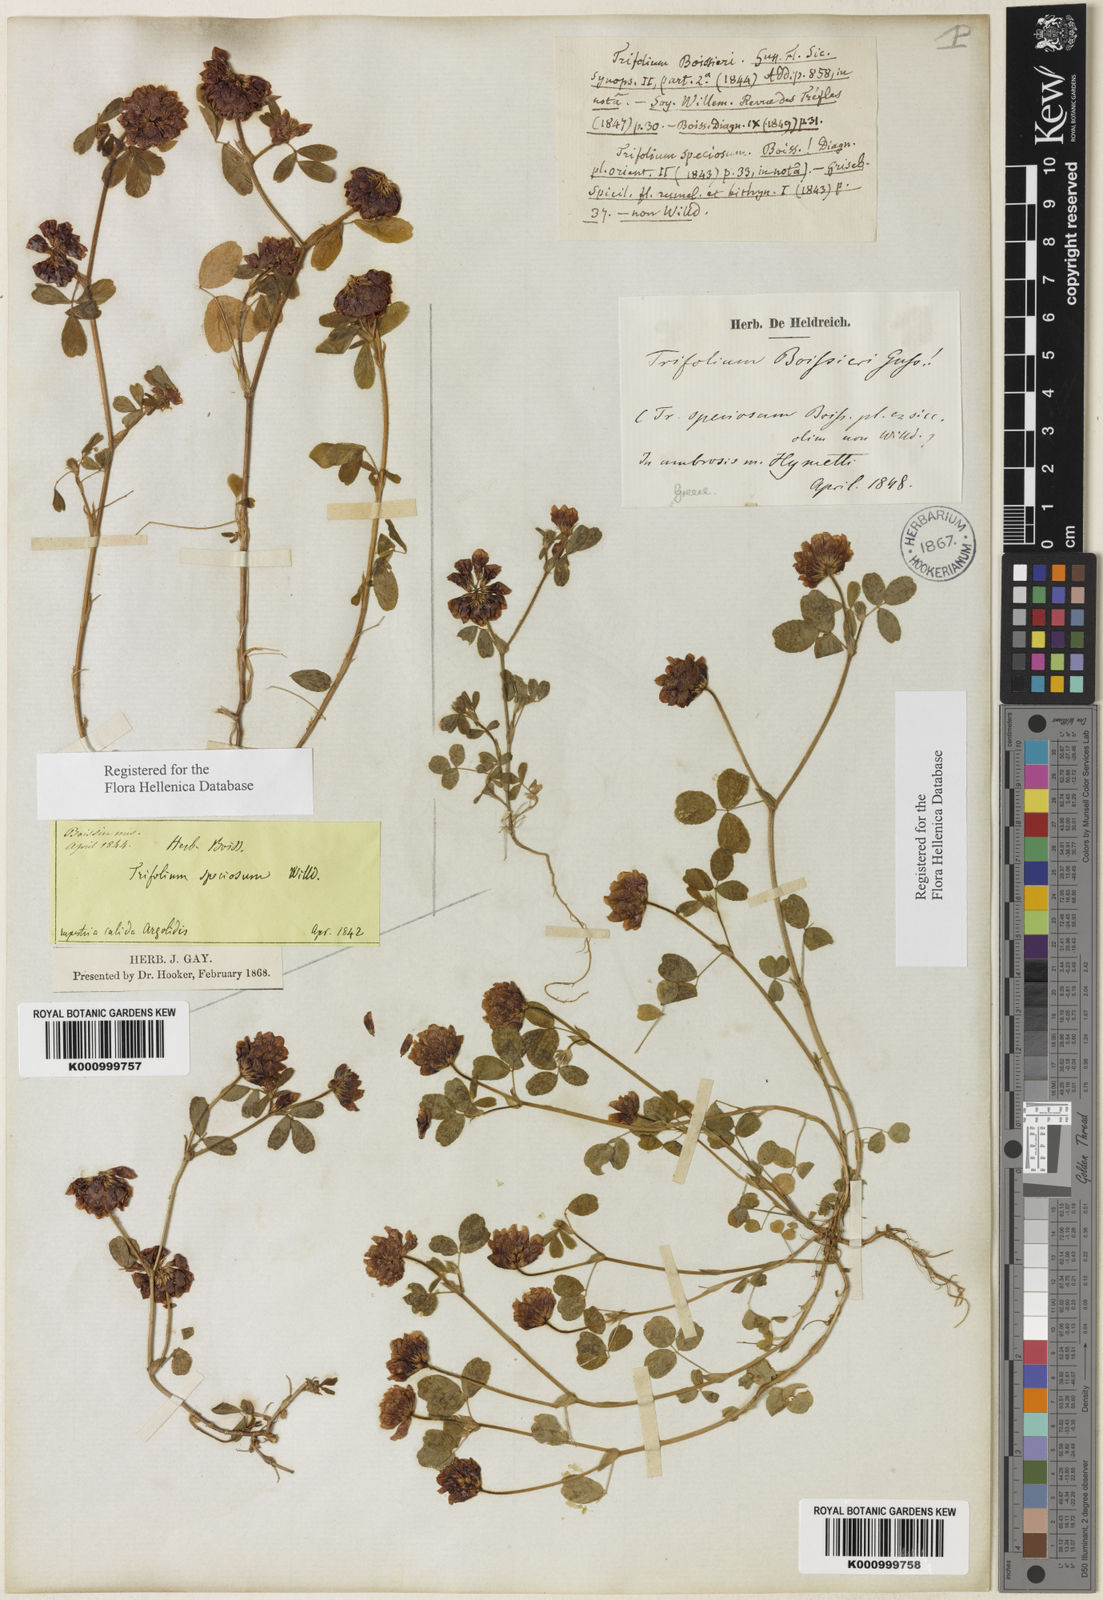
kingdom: Plantae
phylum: Tracheophyta
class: Magnoliopsida
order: Fabales
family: Fabaceae
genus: Trifolium
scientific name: Trifolium boissieri
